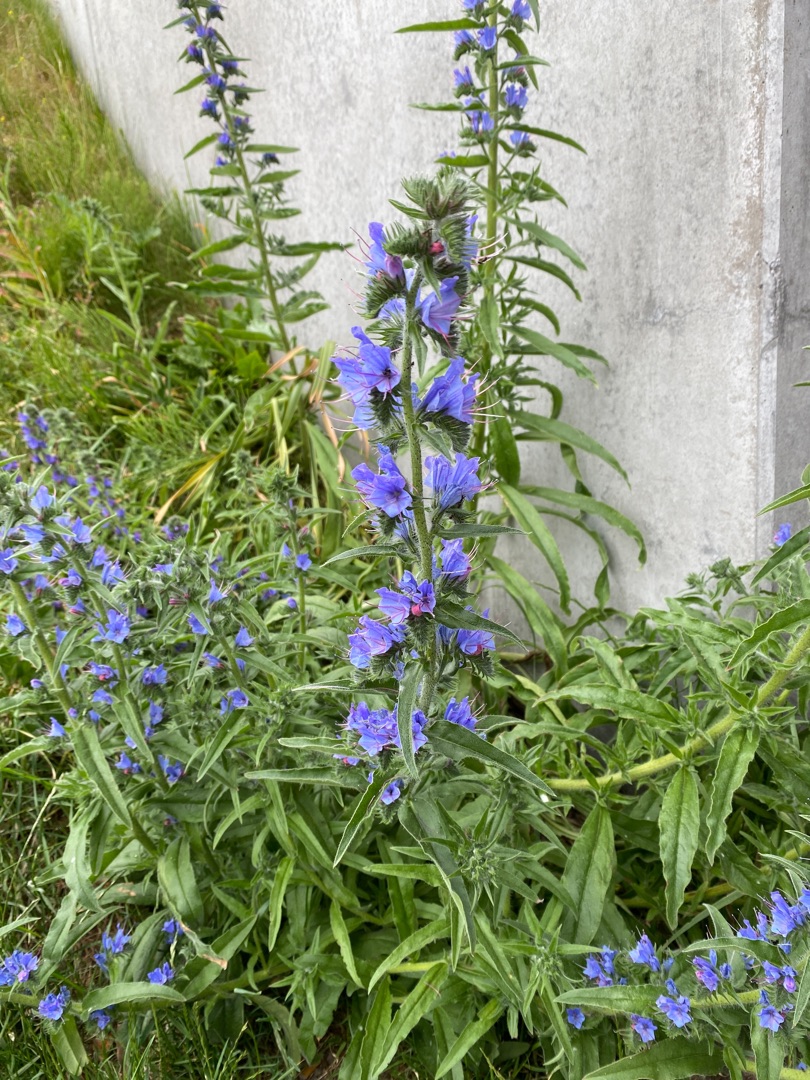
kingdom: Plantae
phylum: Tracheophyta
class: Magnoliopsida
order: Boraginales
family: Boraginaceae
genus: Echium
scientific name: Echium vulgare
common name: Slangehoved
